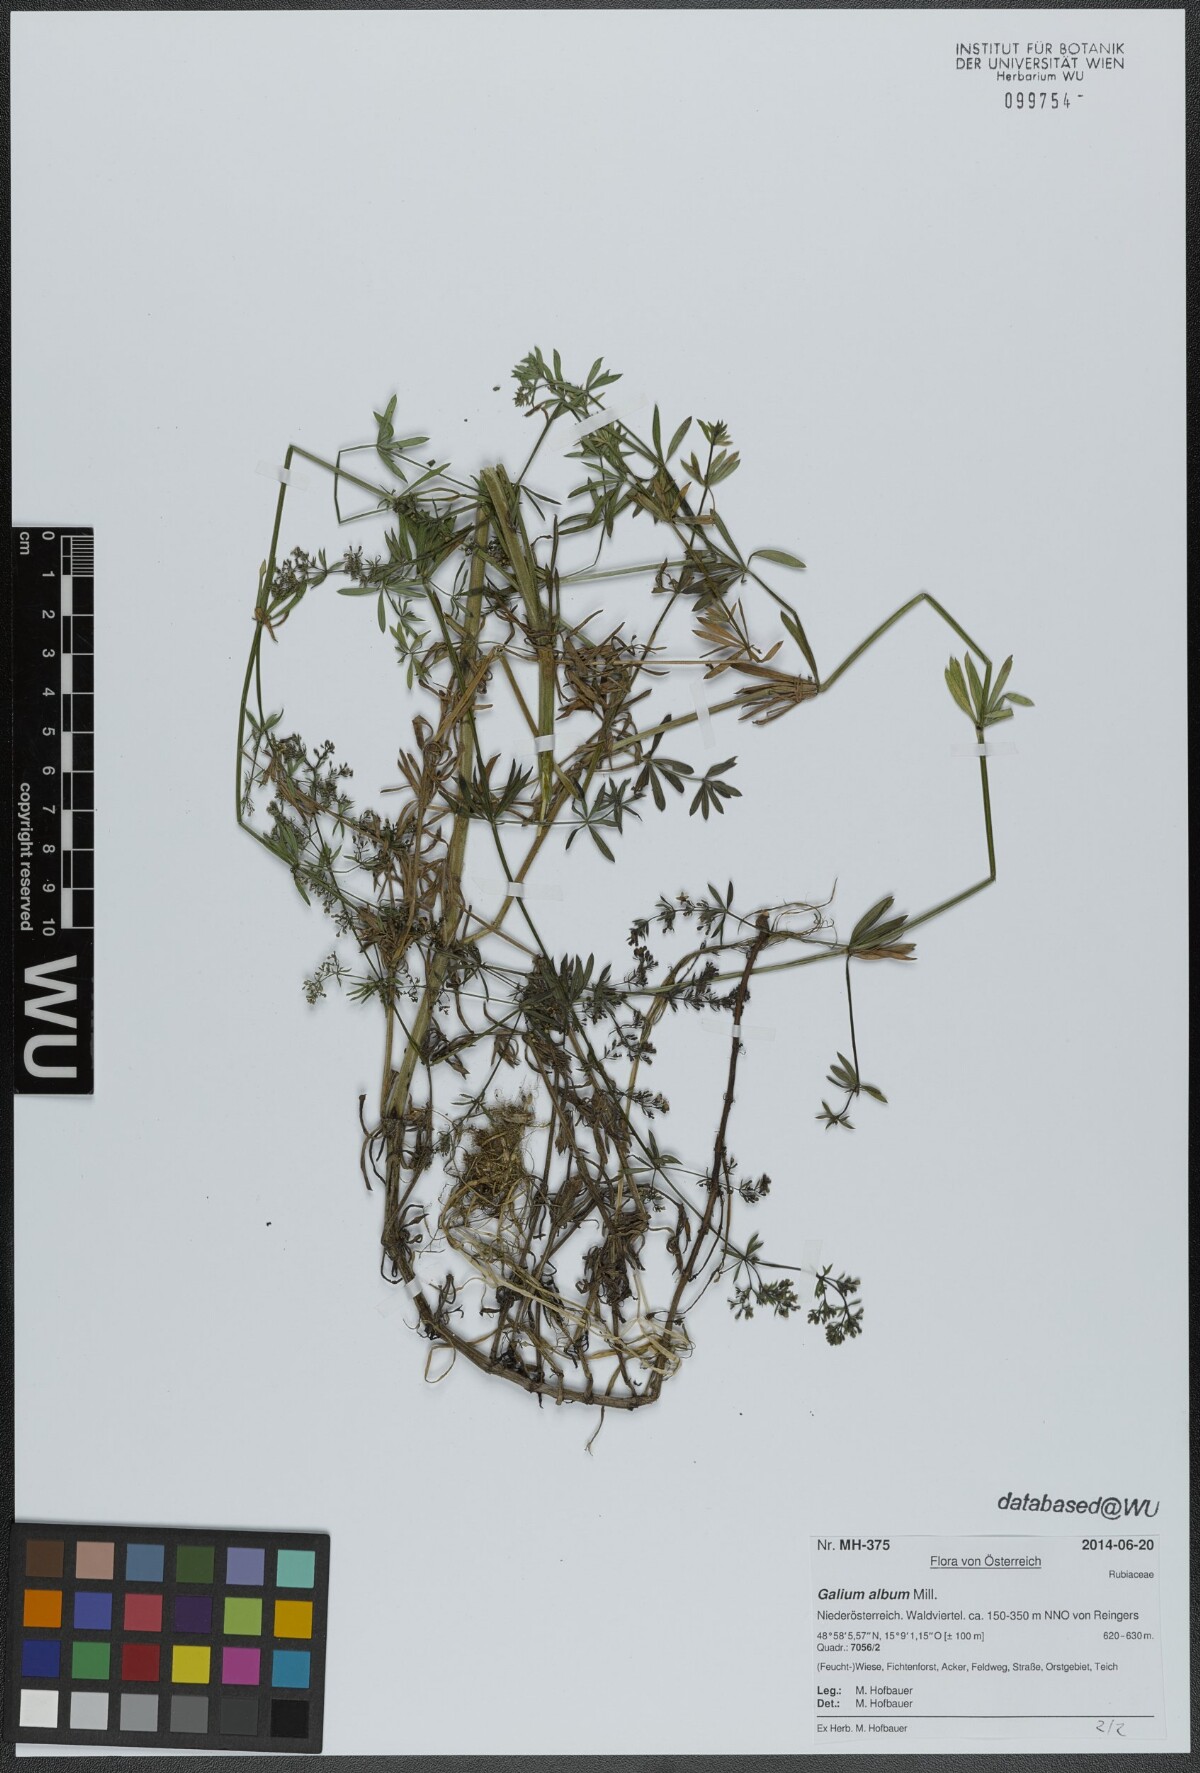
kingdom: Plantae
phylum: Tracheophyta
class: Magnoliopsida
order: Gentianales
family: Rubiaceae
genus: Galium
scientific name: Galium album
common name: White bedstraw
